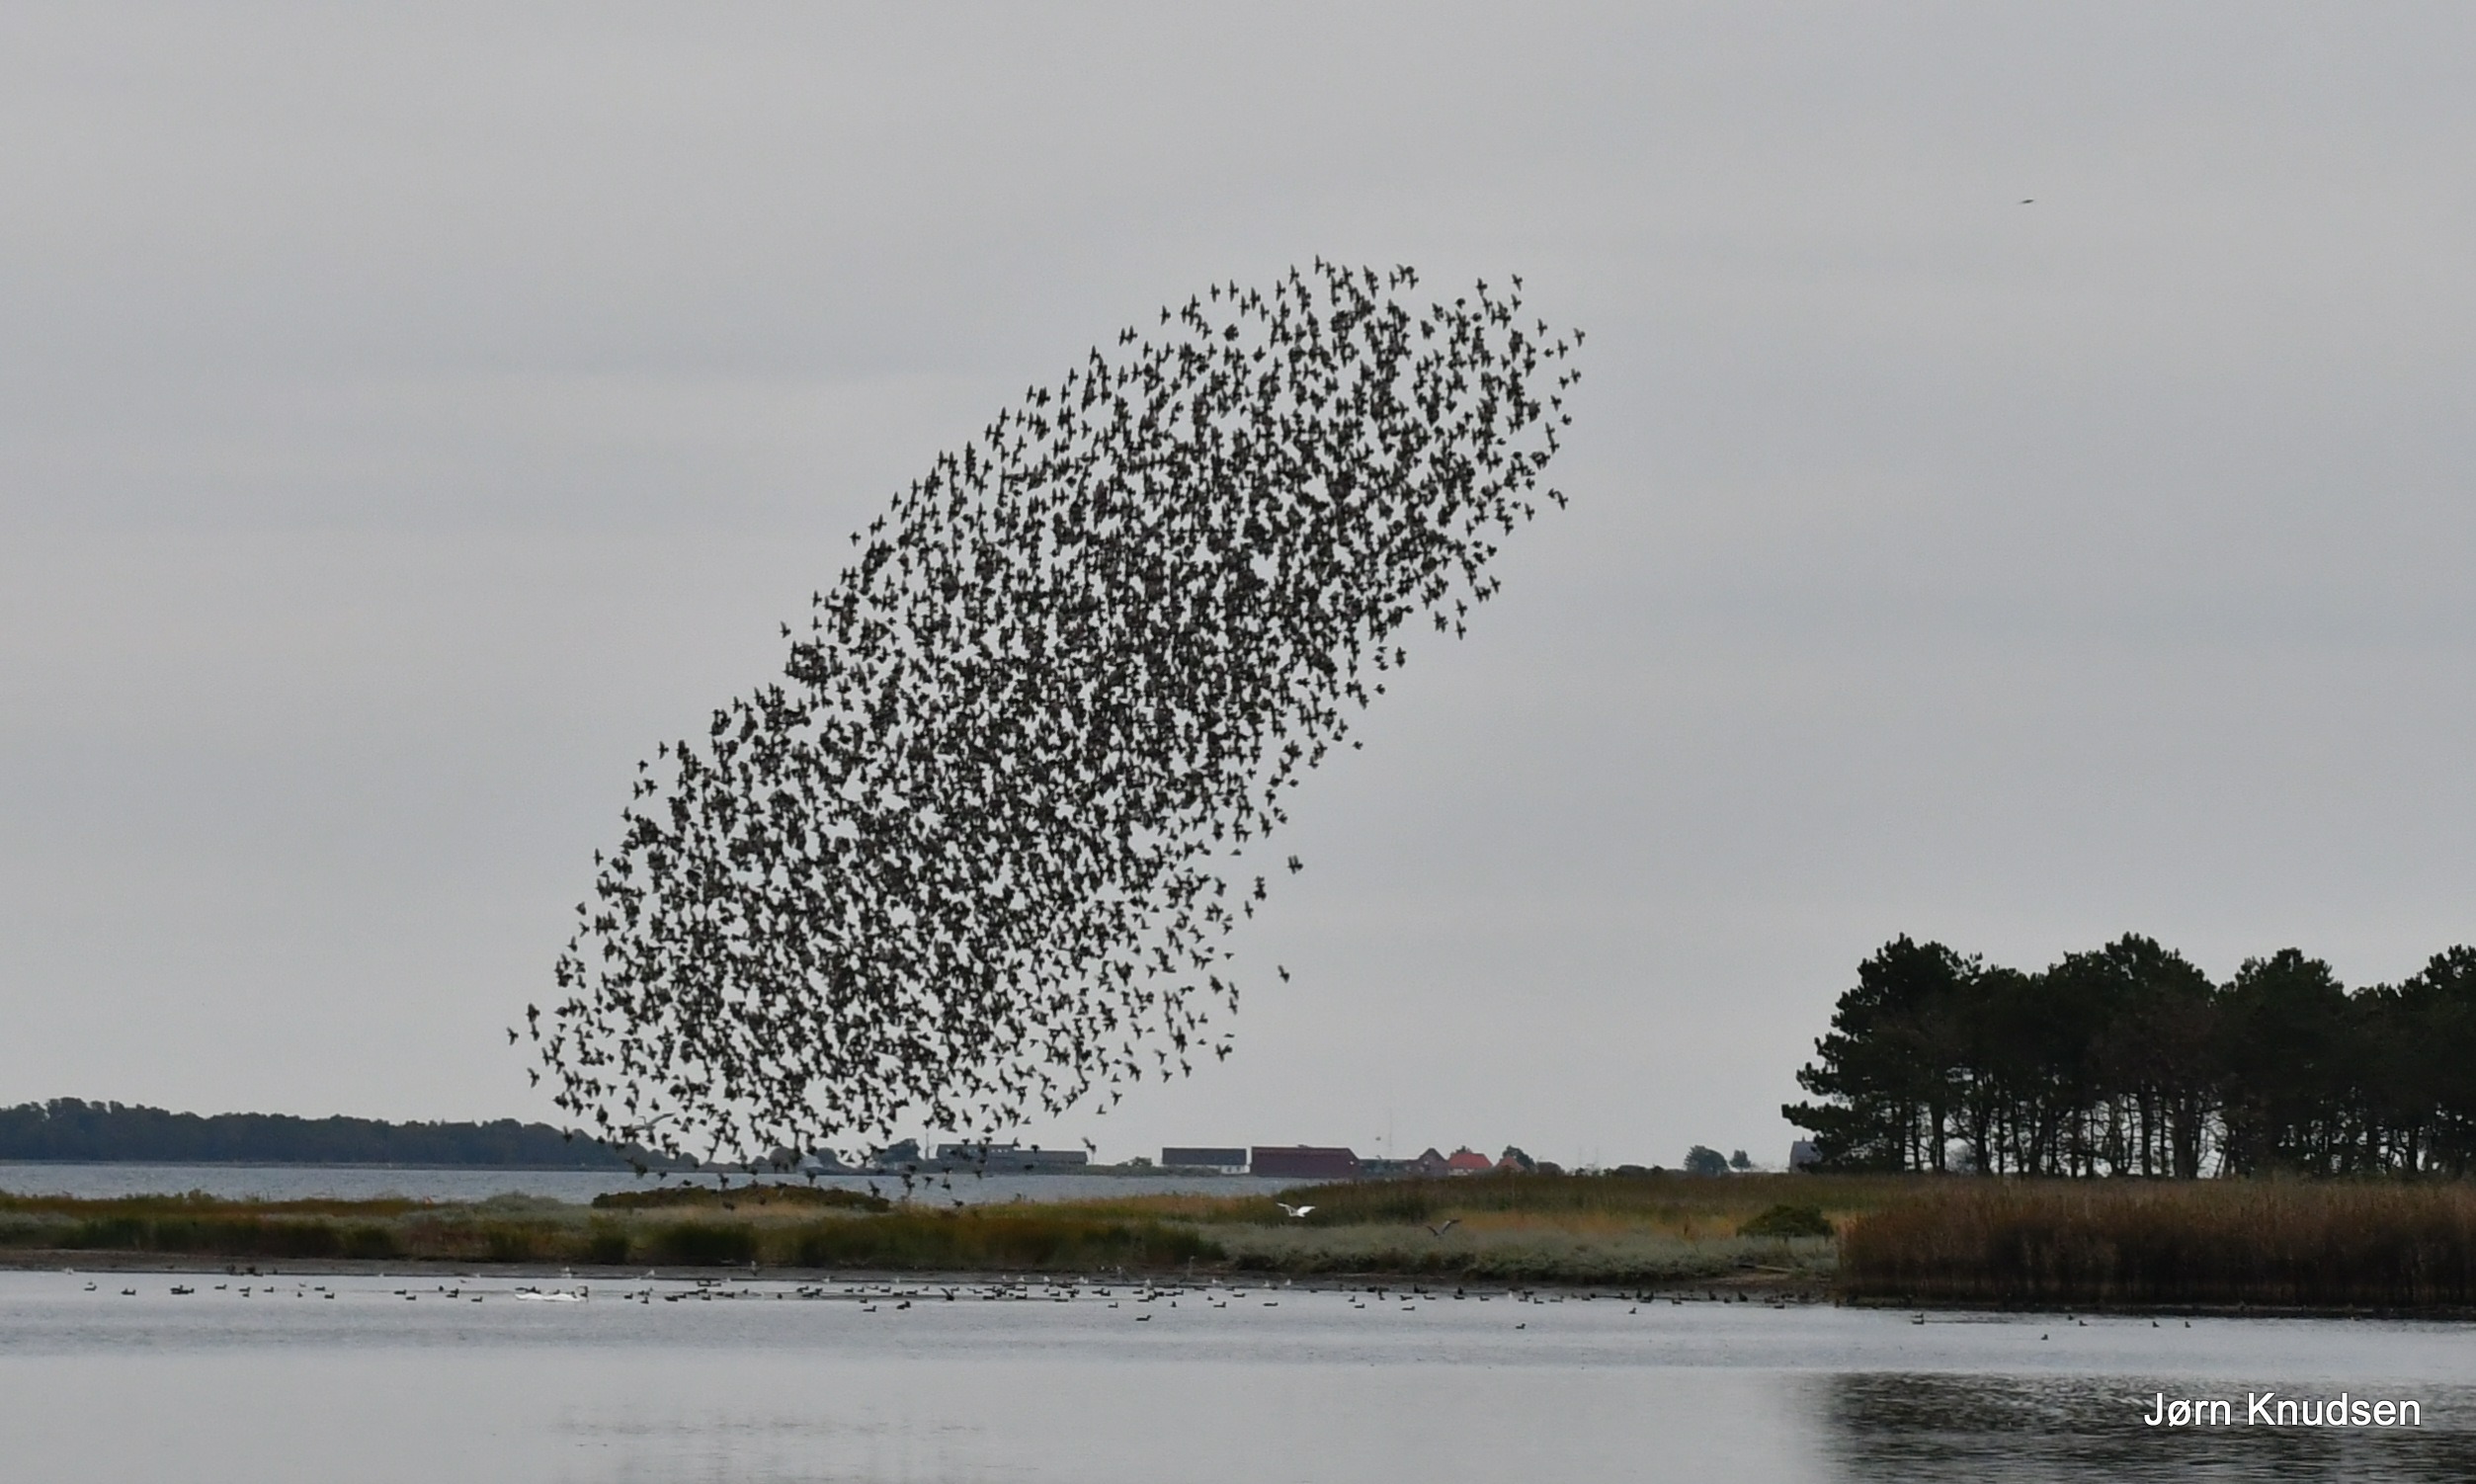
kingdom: Animalia
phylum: Chordata
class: Aves
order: Passeriformes
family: Sturnidae
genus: Sturnus
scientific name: Sturnus vulgaris
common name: Stær
